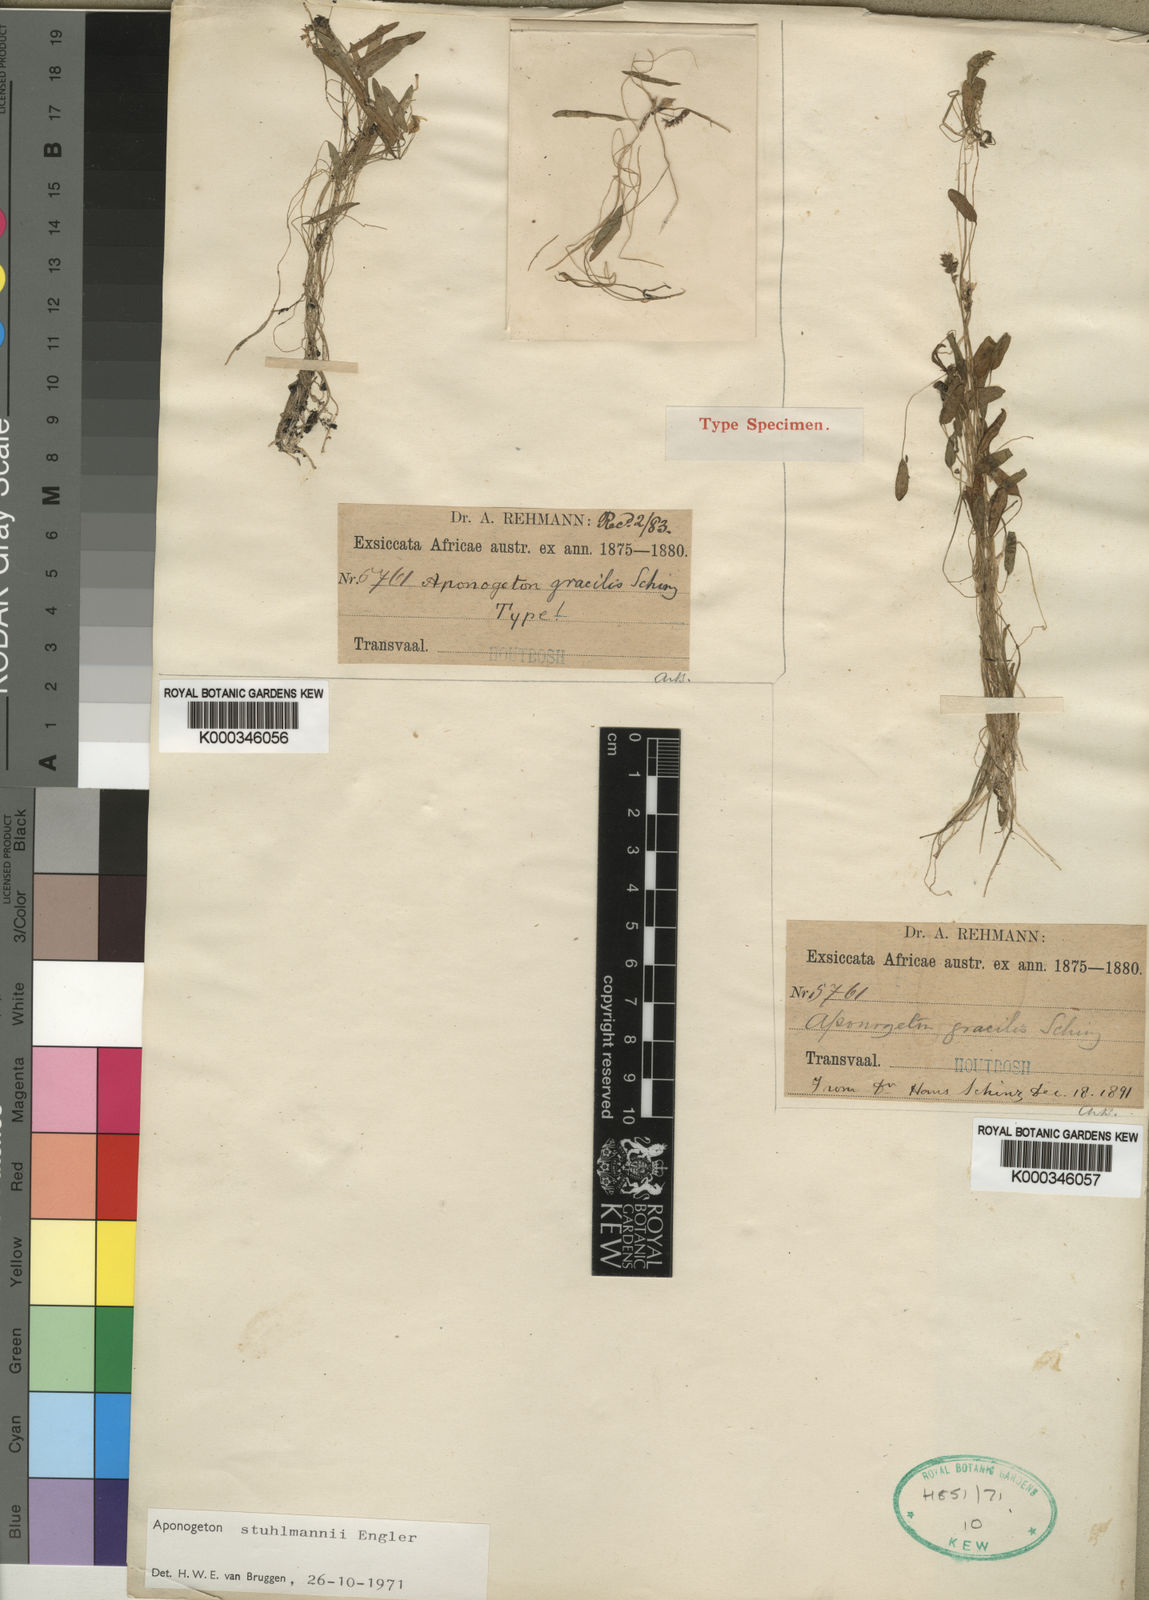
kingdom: Plantae
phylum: Tracheophyta
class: Liliopsida
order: Alismatales
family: Aponogetonaceae
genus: Aponogeton
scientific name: Aponogeton stuhlmannii
